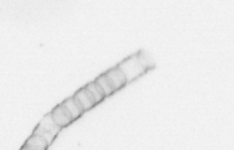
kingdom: Chromista
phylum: Ochrophyta
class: Bacillariophyceae
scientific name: Bacillariophyceae
